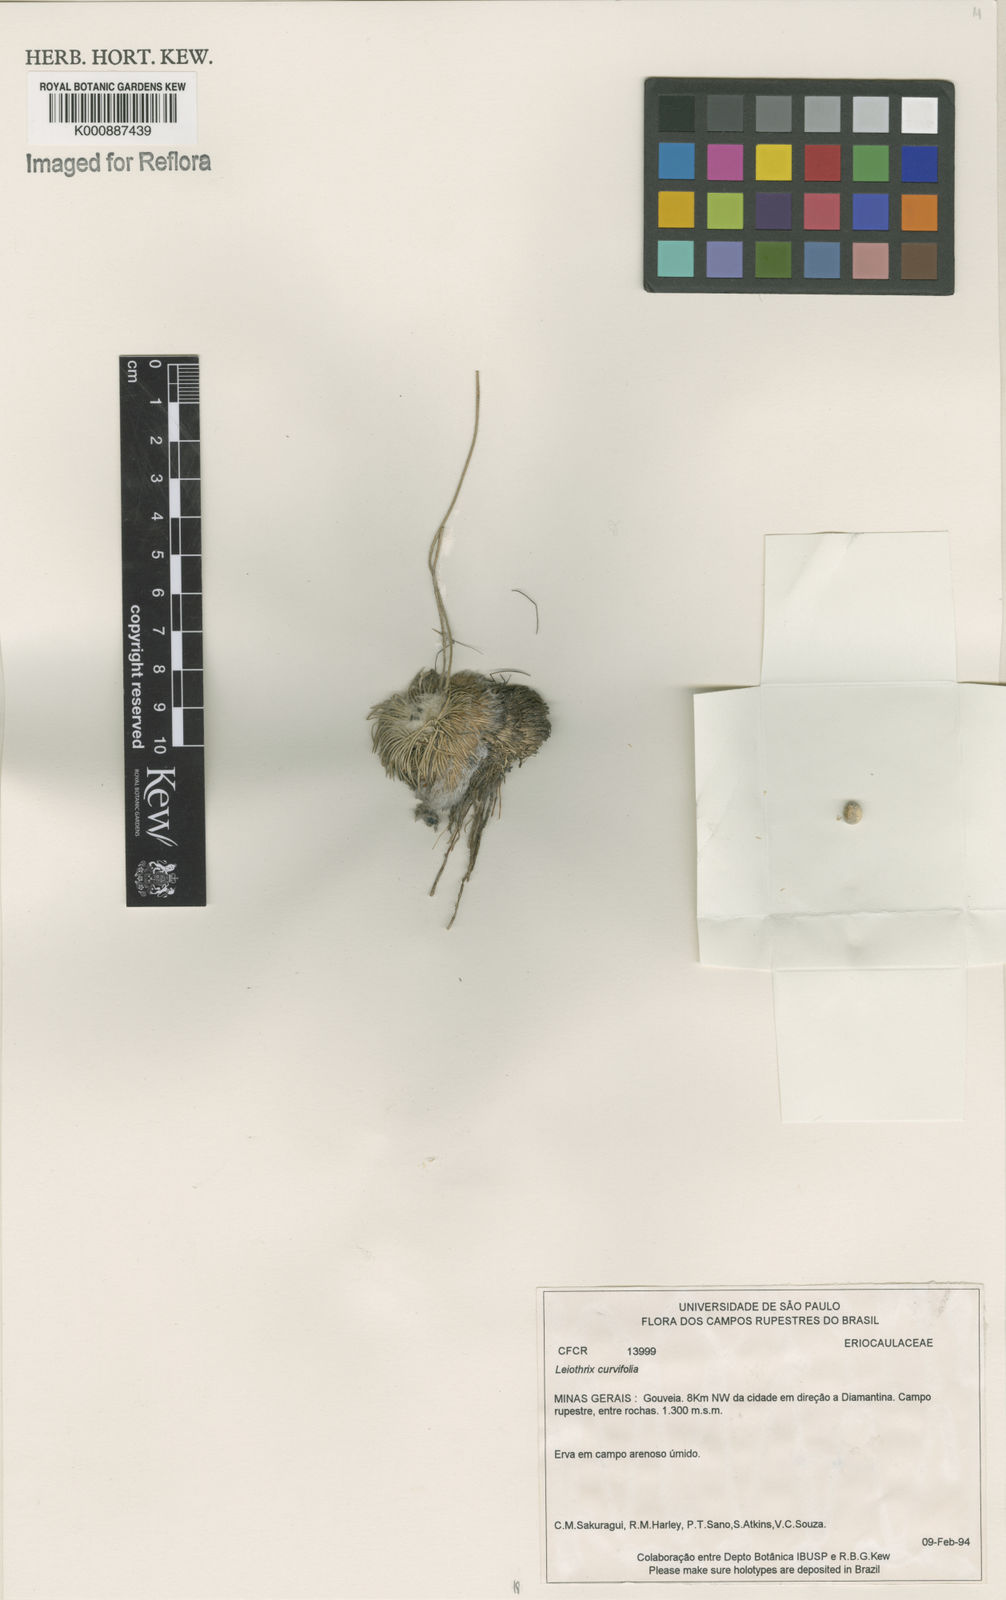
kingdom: Plantae
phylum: Tracheophyta
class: Liliopsida
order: Poales
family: Eriocaulaceae
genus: Leiothrix
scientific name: Leiothrix curvifolia
